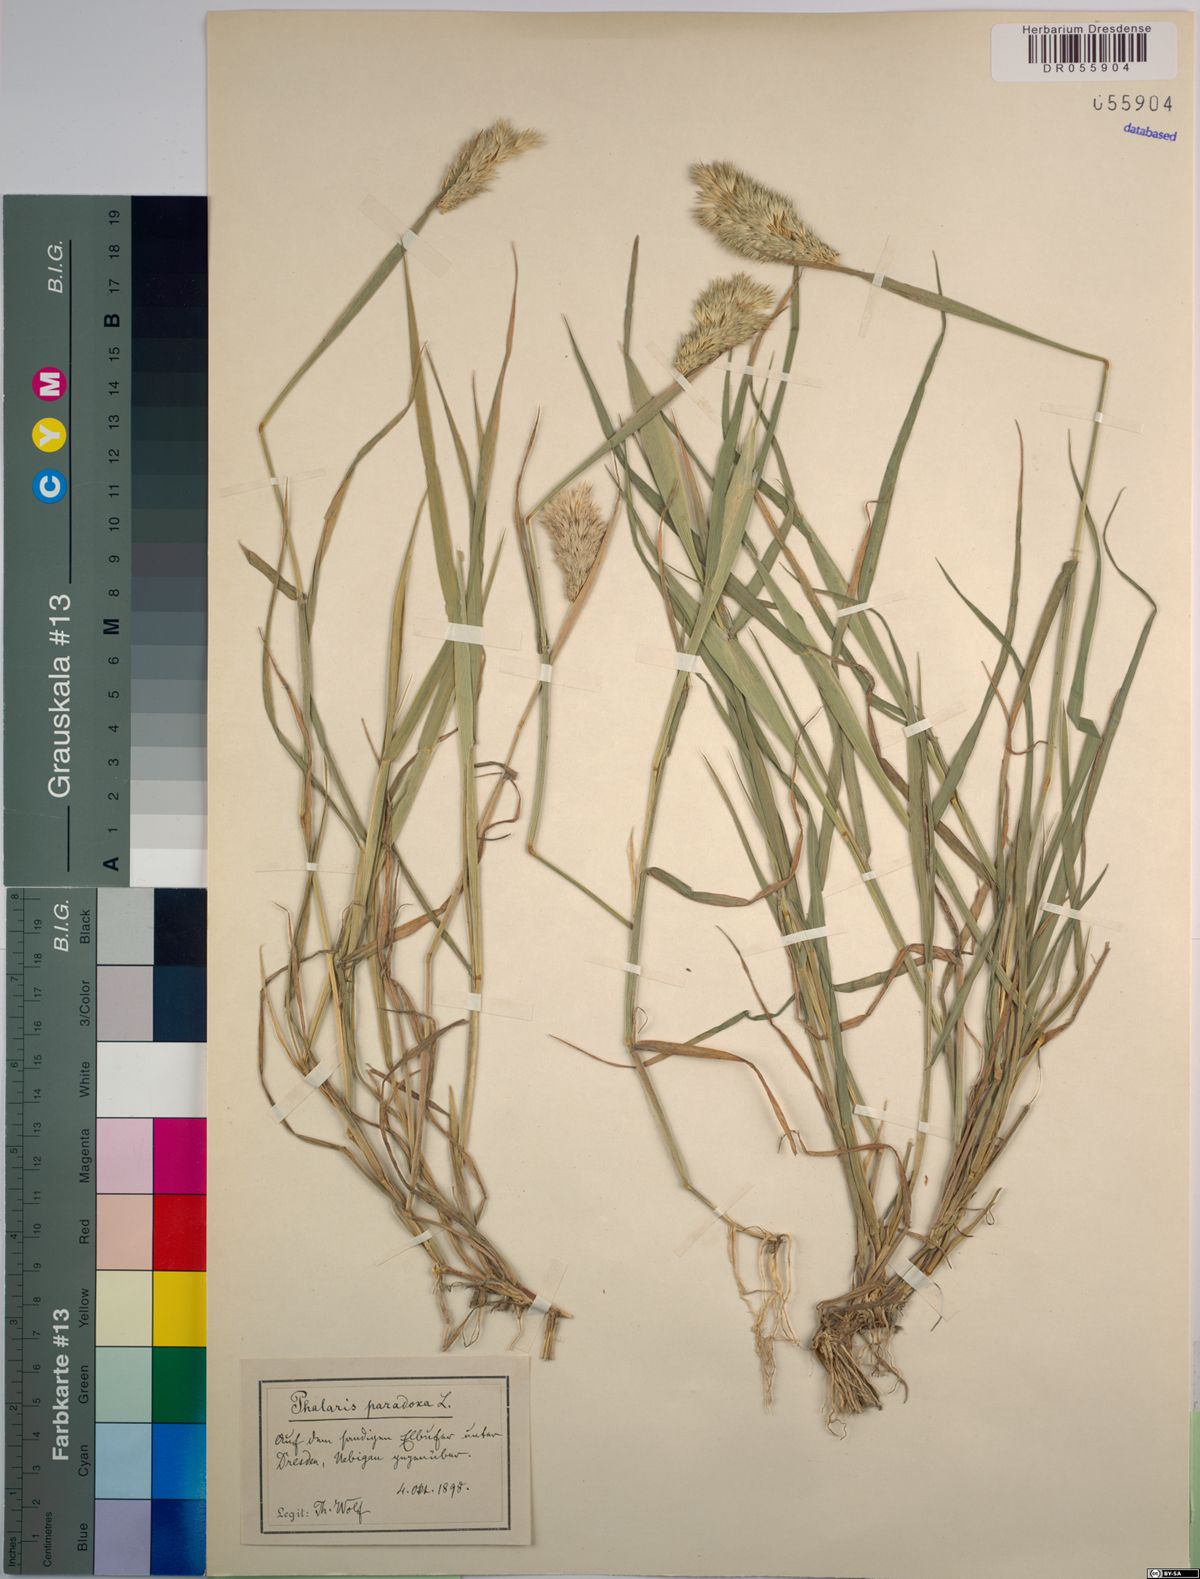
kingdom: Plantae
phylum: Tracheophyta
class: Liliopsida
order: Poales
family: Poaceae
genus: Phalaris
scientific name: Phalaris paradoxa
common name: Awned canary-grass
